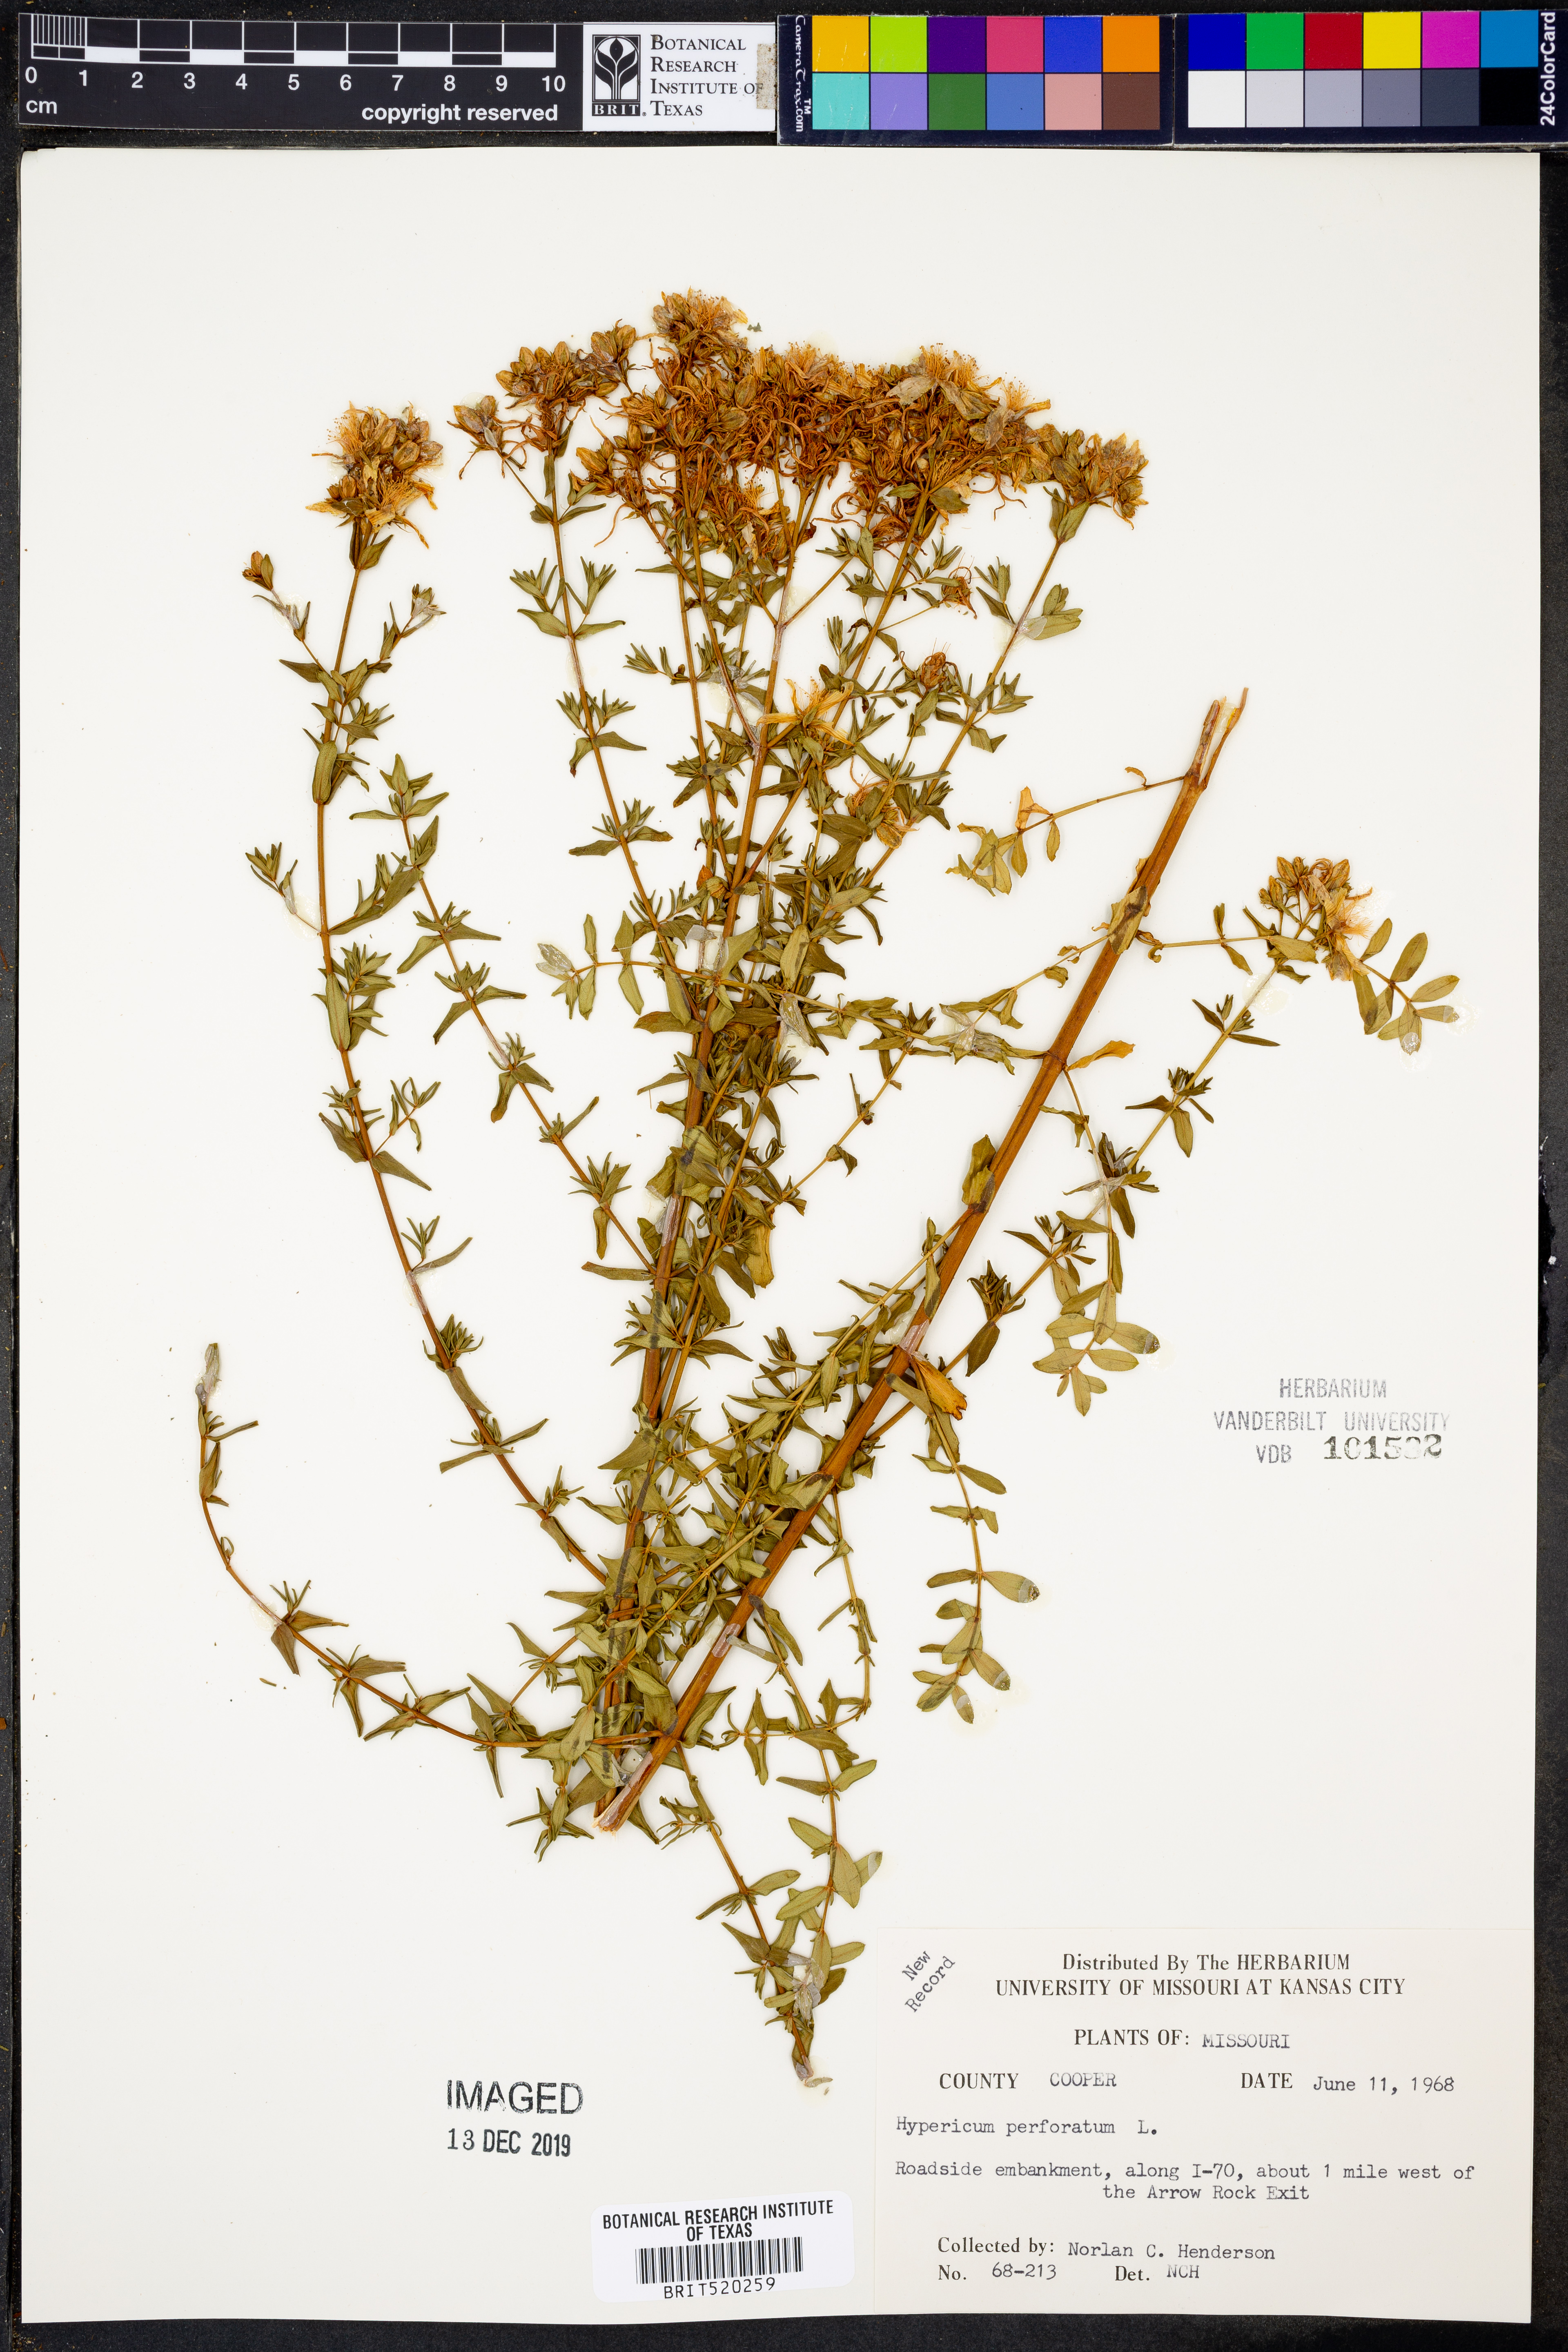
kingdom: Plantae
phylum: Tracheophyta
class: Magnoliopsida
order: Malpighiales
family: Hypericaceae
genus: Hypericum
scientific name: Hypericum perforatum
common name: Common st. johnswort
